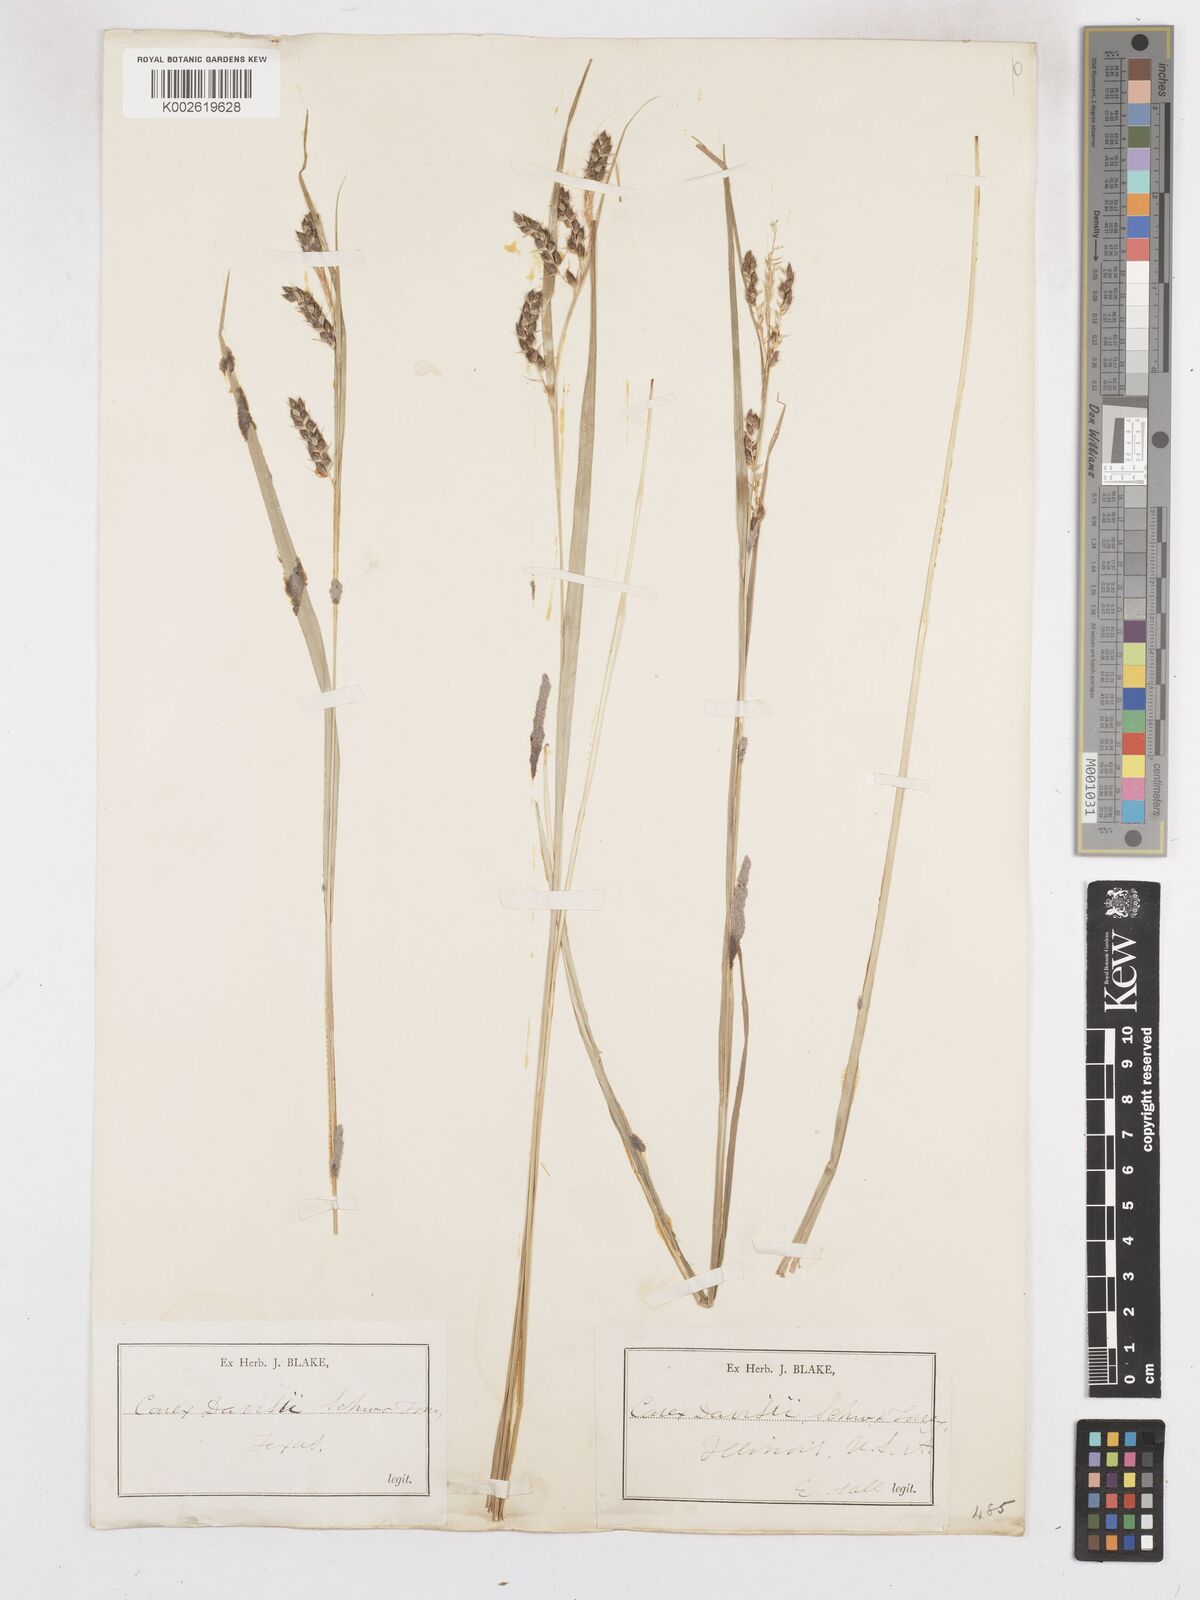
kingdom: Plantae
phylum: Tracheophyta
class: Liliopsida
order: Poales
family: Cyperaceae
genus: Carex
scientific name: Carex davisii
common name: Davis' sedge
